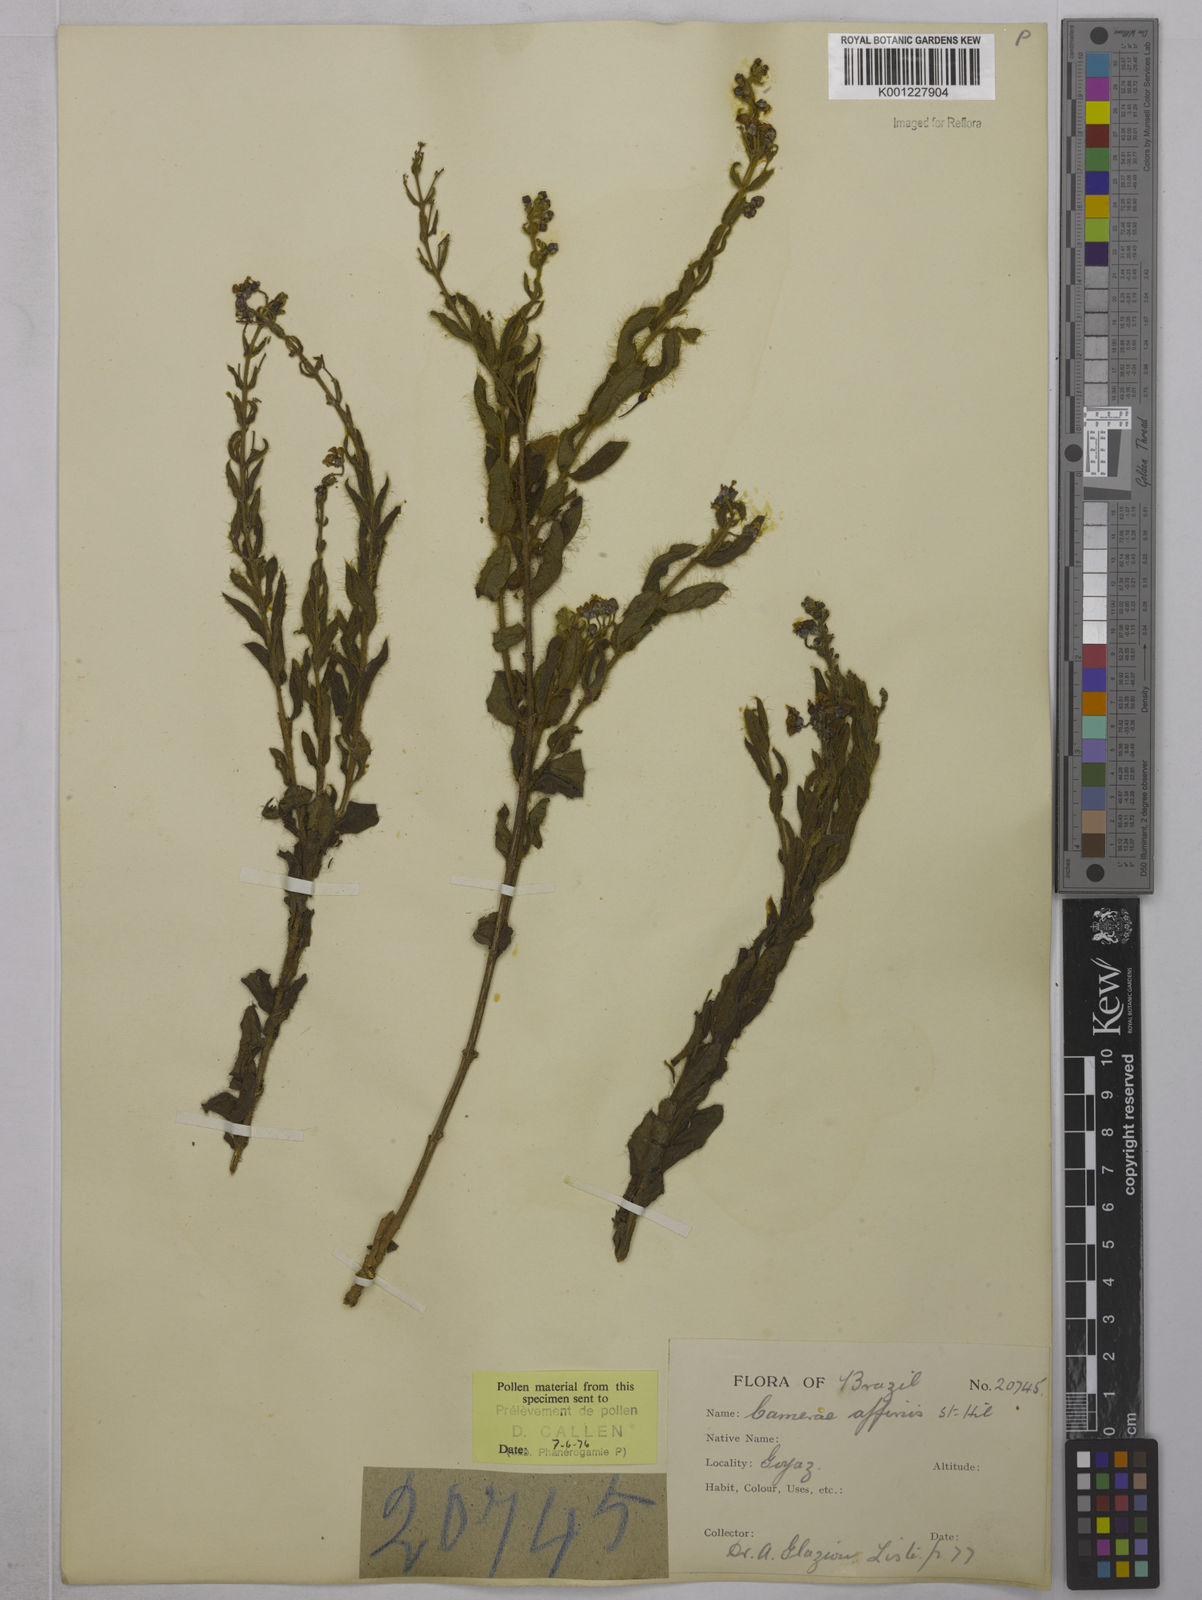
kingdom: Plantae
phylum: Tracheophyta
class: Magnoliopsida
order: Malpighiales
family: Malpighiaceae
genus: Camarea
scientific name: Camarea affinis
